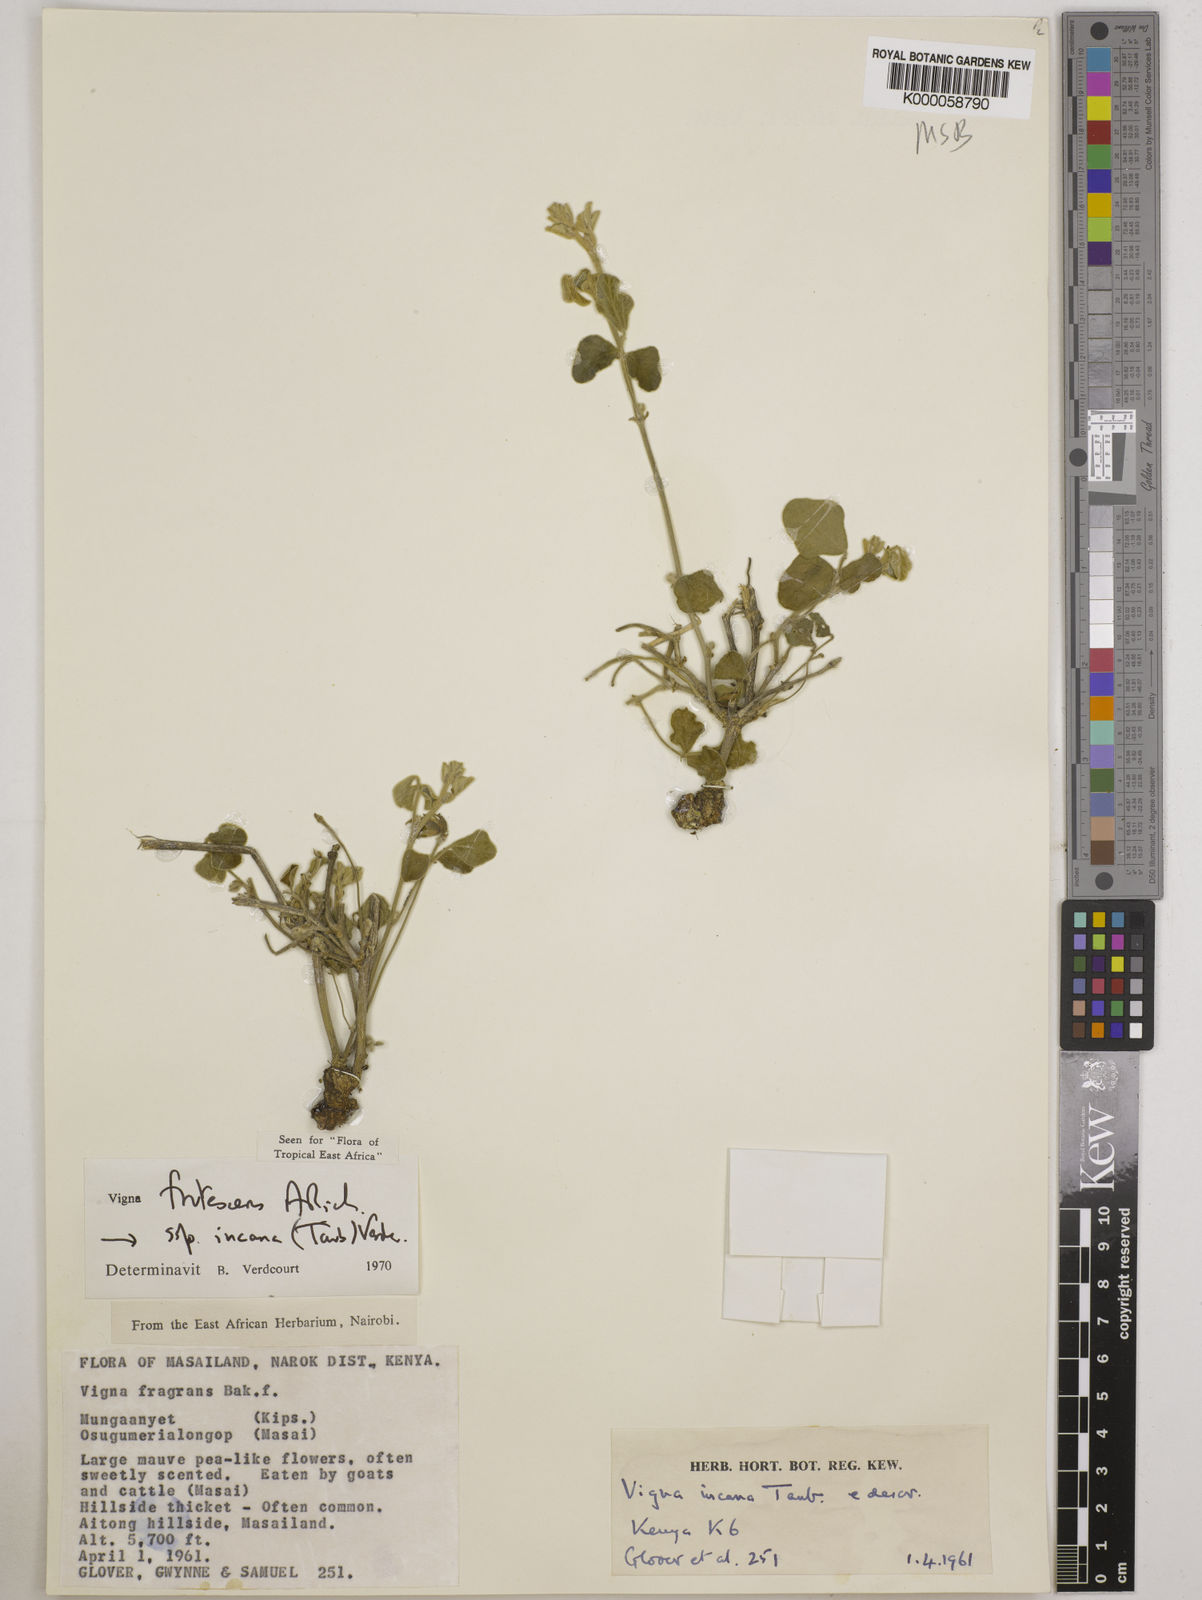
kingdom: Plantae
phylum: Tracheophyta
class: Magnoliopsida
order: Fabales
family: Fabaceae
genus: Vigna
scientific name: Vigna frutescens
